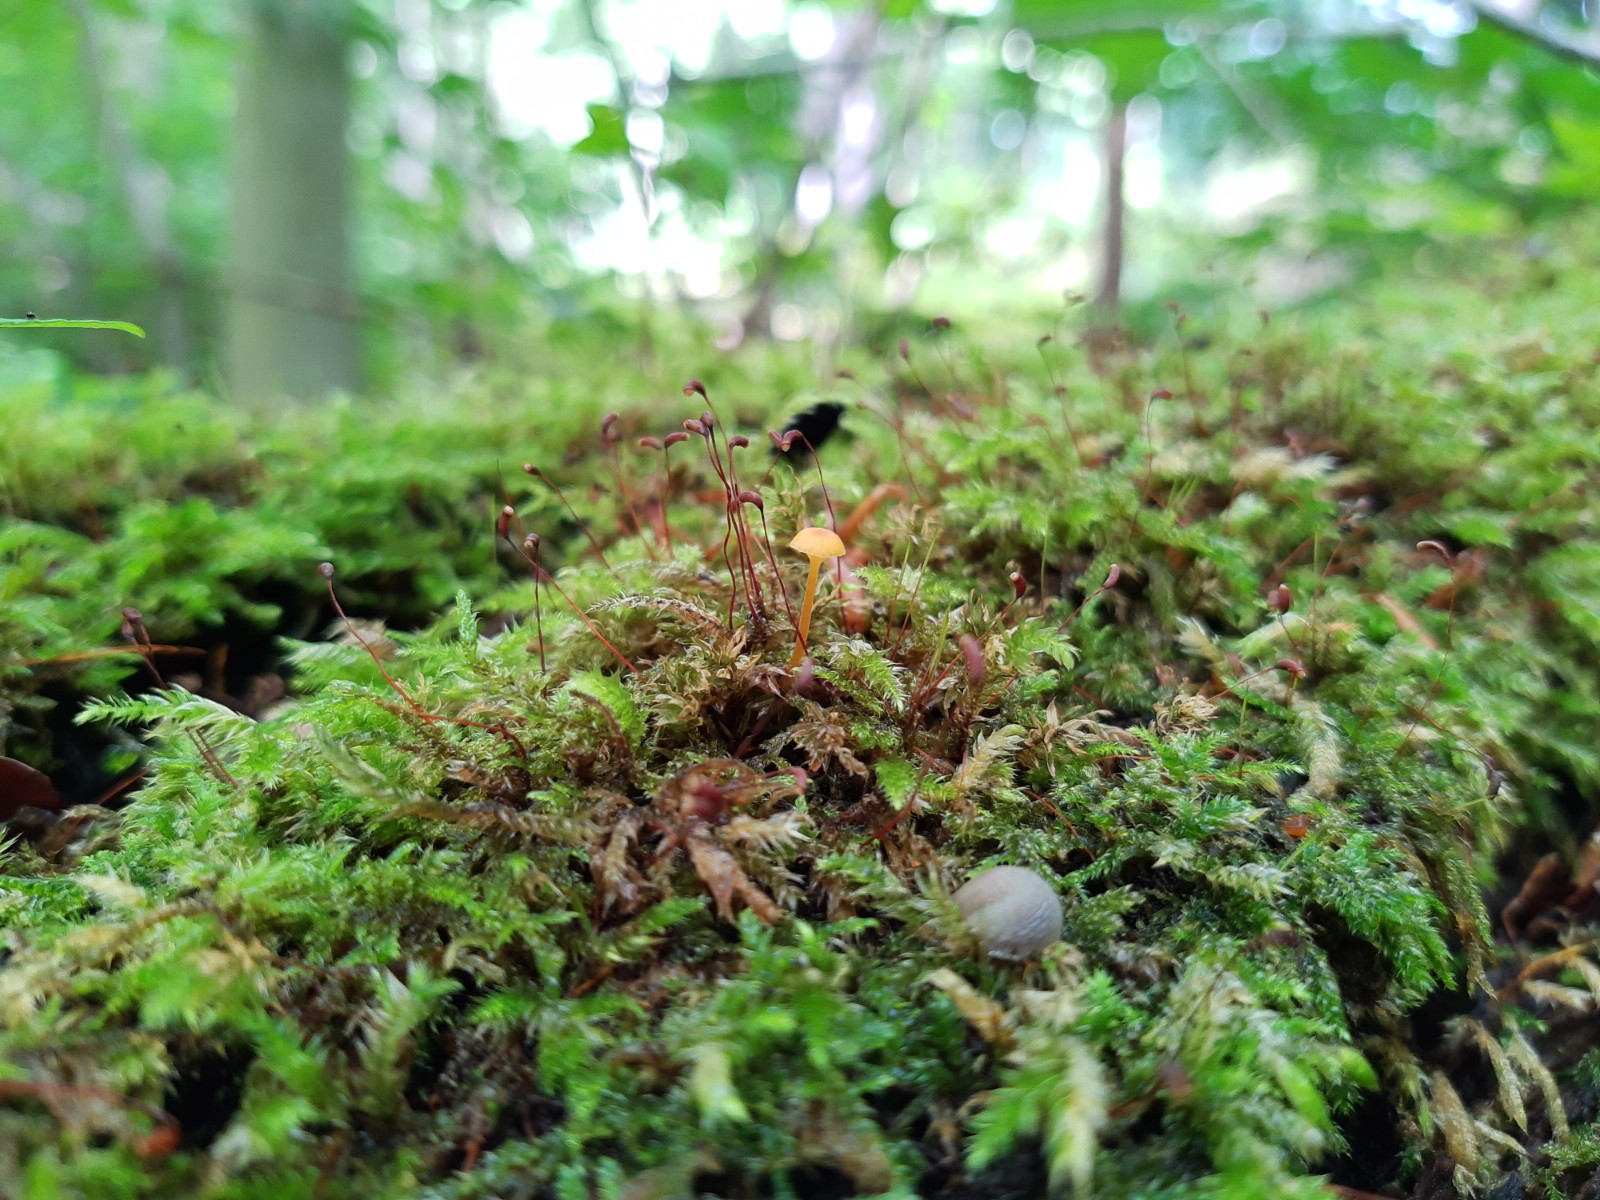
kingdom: Fungi
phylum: Basidiomycota
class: Agaricomycetes
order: Hymenochaetales
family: Rickenellaceae
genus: Rickenella
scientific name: Rickenella fibula
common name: orange mosnavlehat
